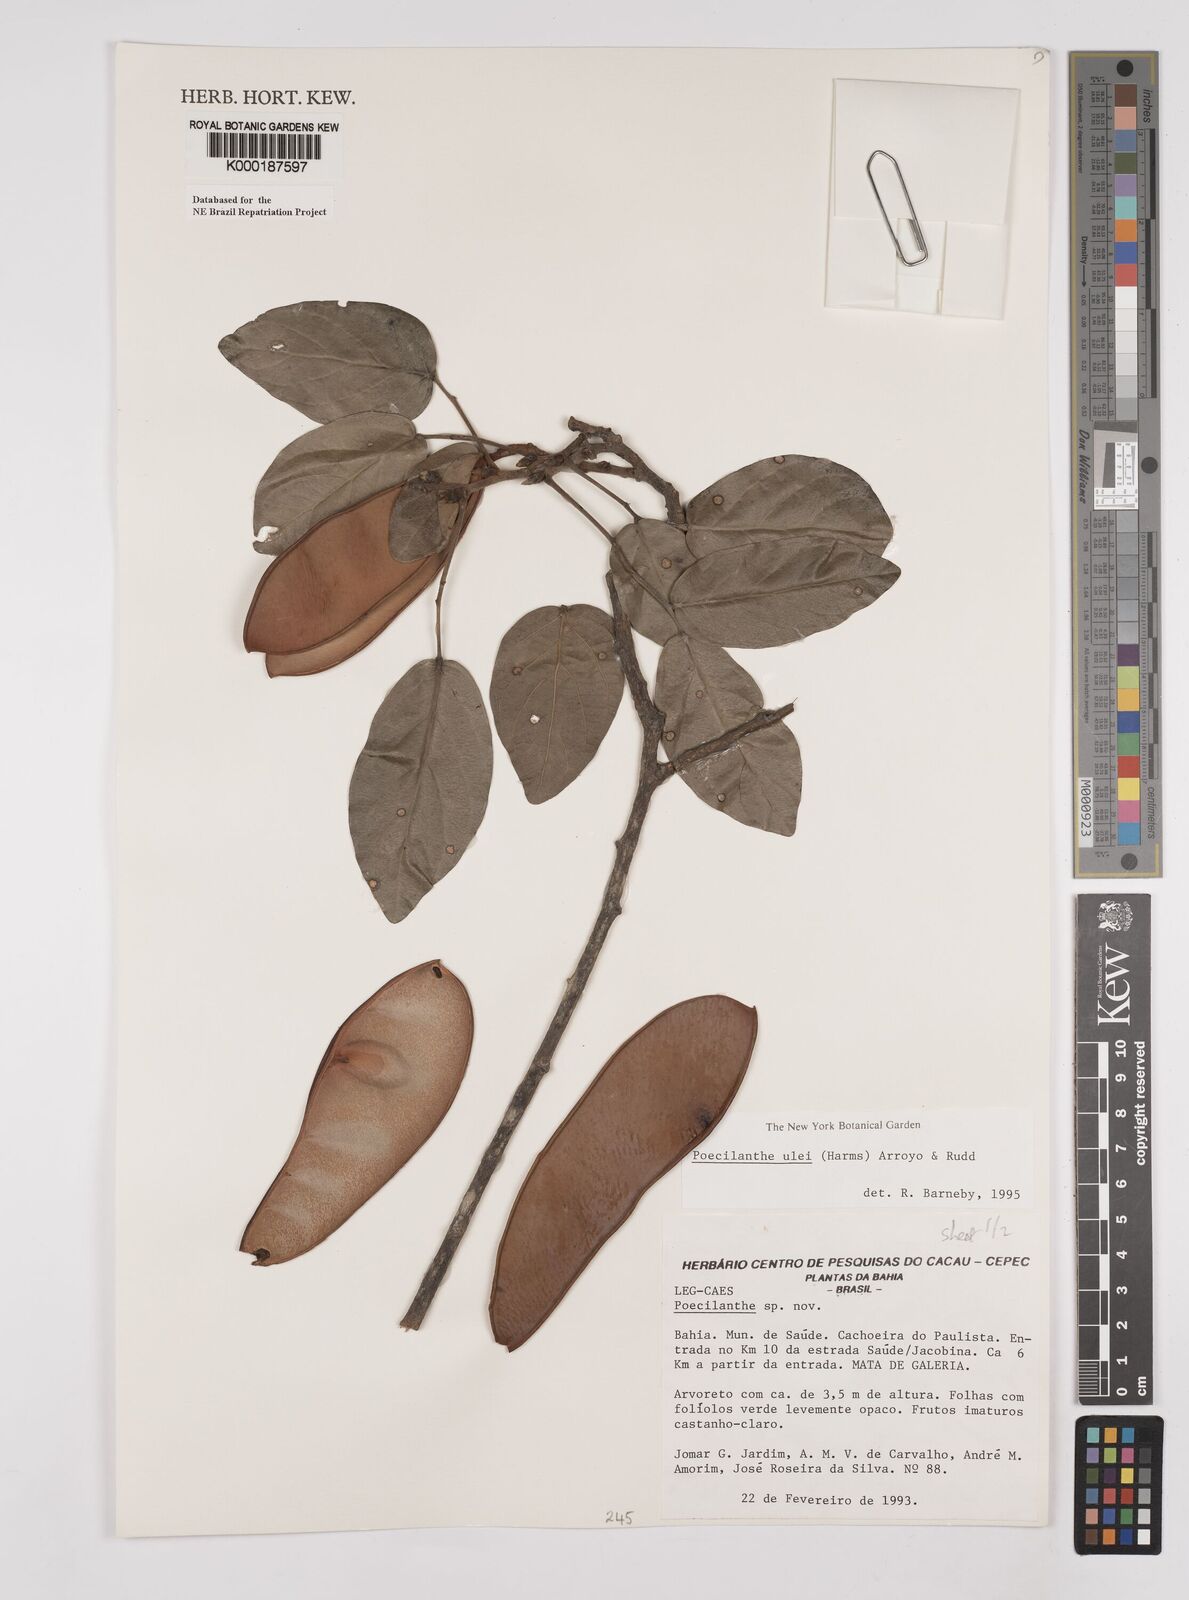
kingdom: Plantae
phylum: Tracheophyta
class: Magnoliopsida
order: Fabales
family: Fabaceae
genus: Poecilanthe
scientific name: Poecilanthe ulei
